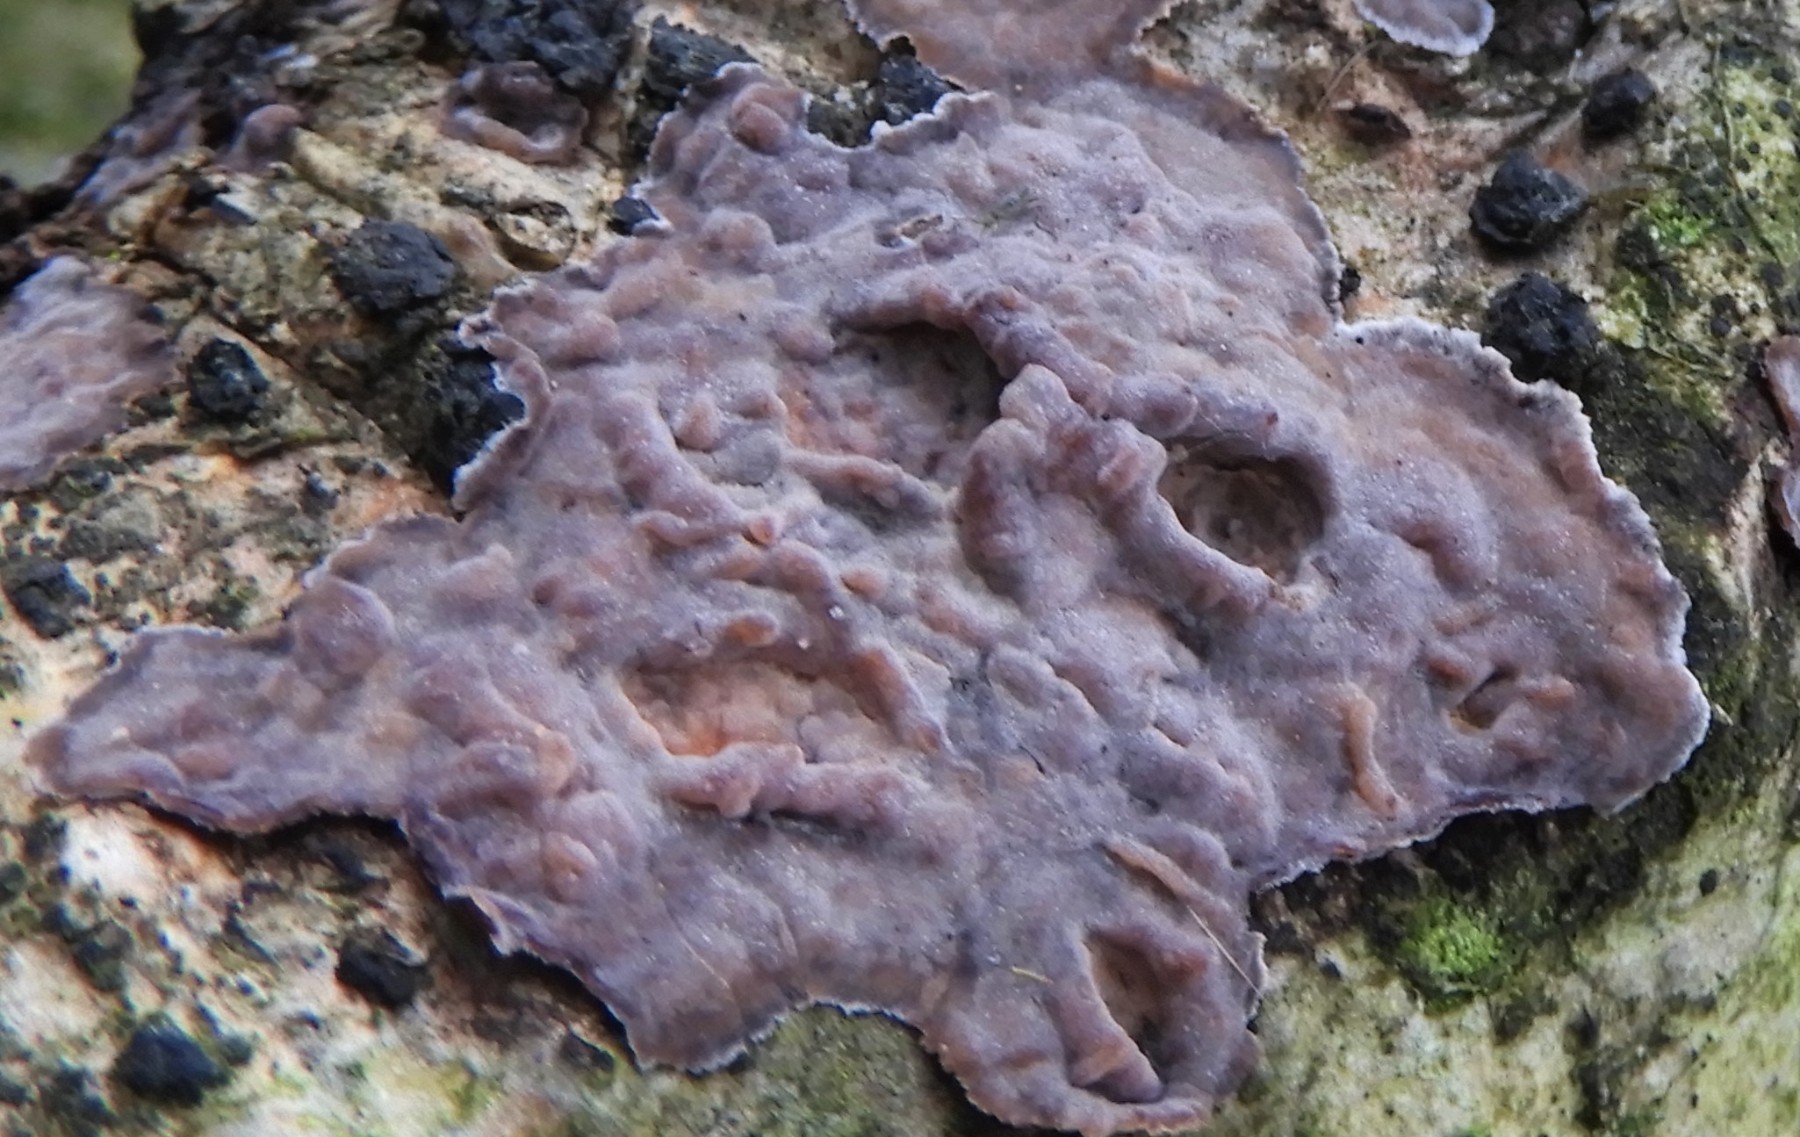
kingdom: Fungi
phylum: Basidiomycota
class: Agaricomycetes
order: Russulales
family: Peniophoraceae
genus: Peniophora
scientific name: Peniophora quercina
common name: ege-voksskind
